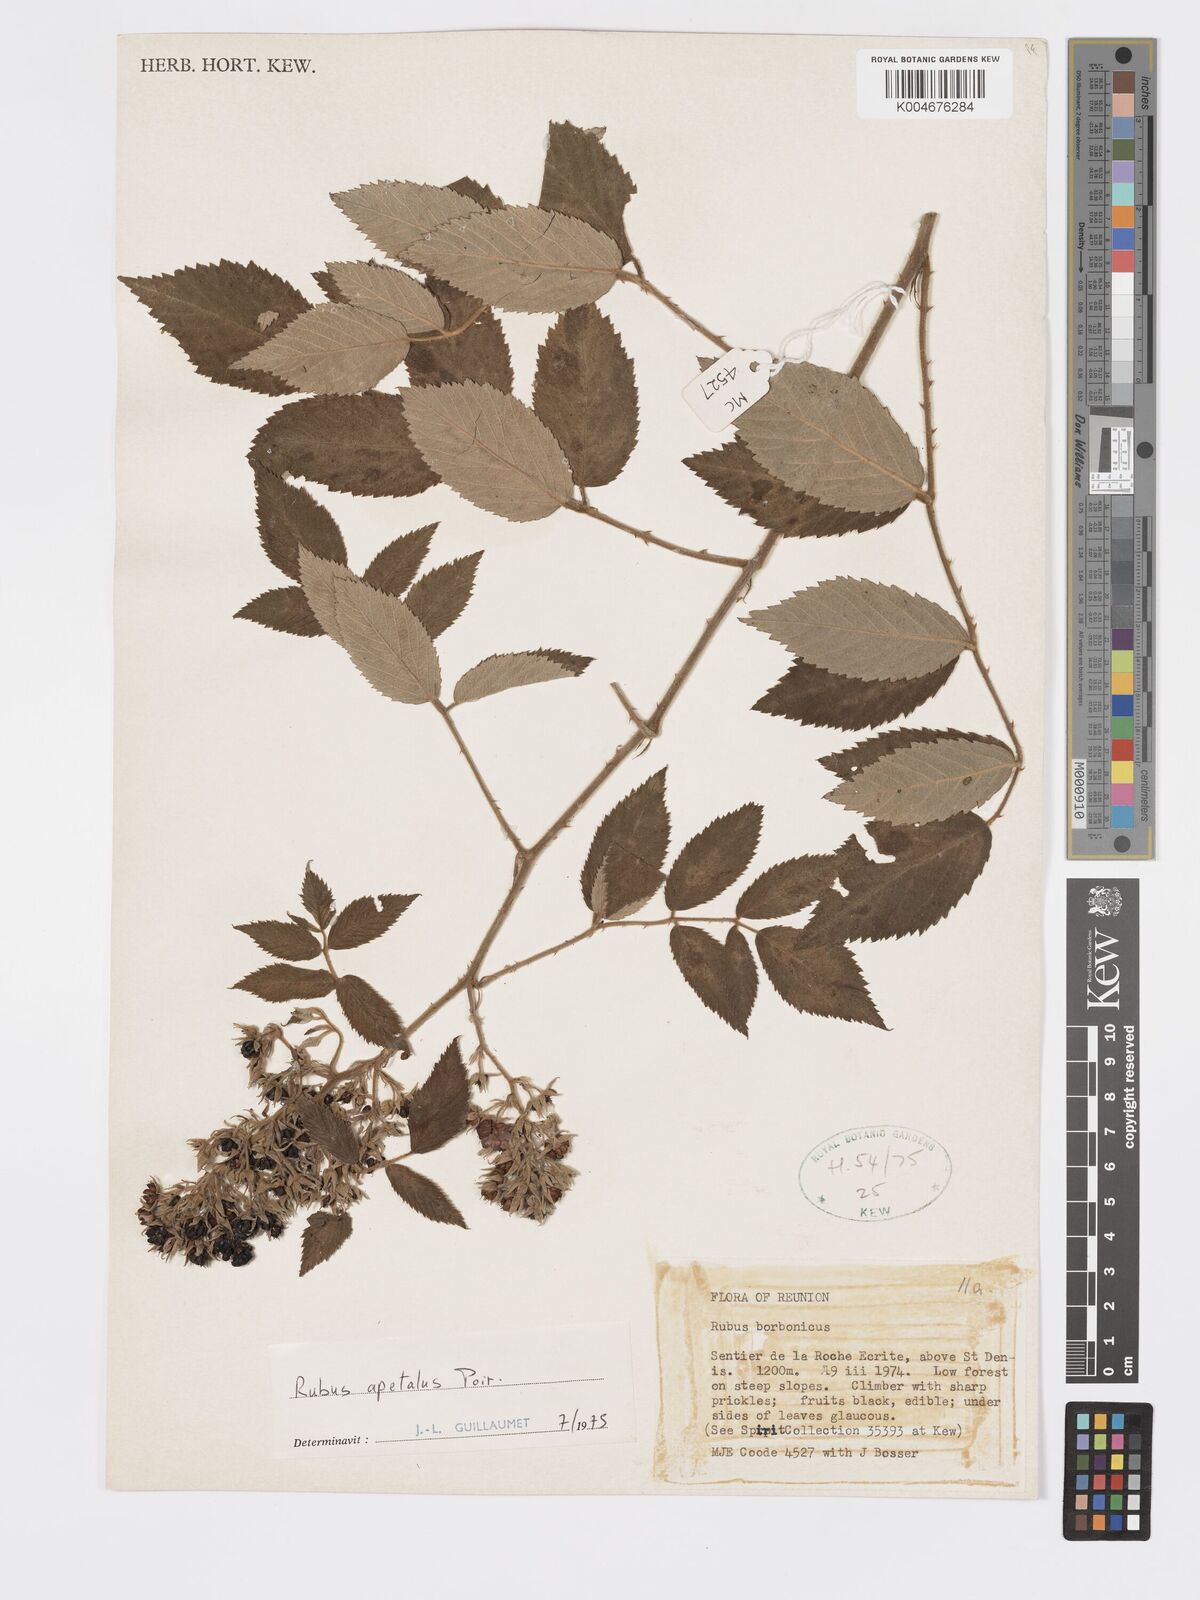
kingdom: Plantae
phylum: Tracheophyta
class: Magnoliopsida
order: Rosales
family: Rosaceae
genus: Rubus
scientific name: Rubus apetalus
